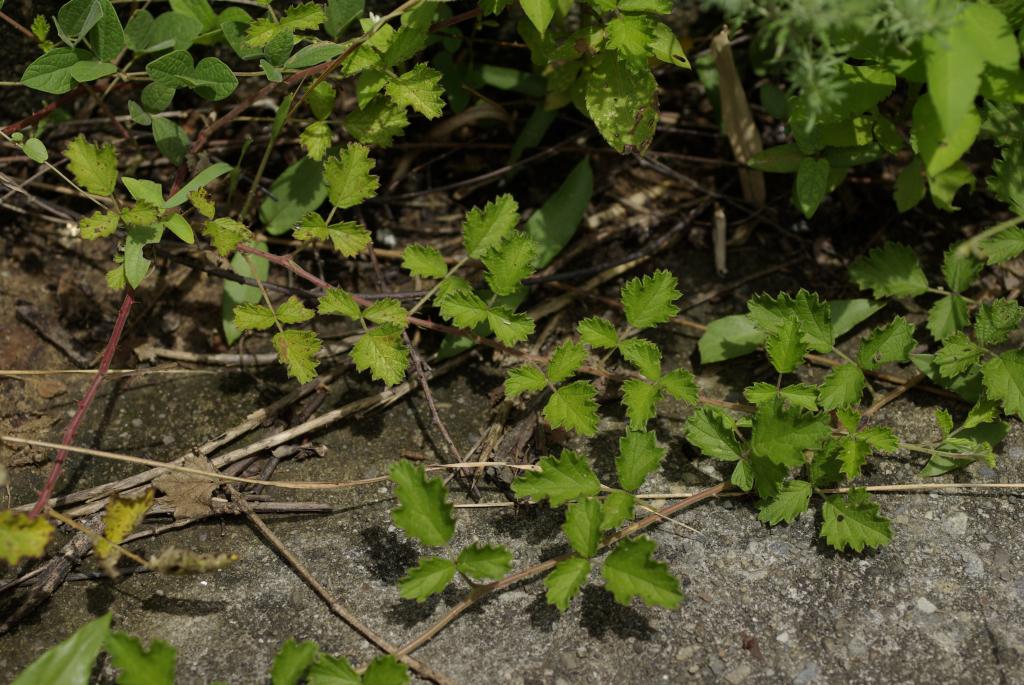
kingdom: Plantae
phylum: Tracheophyta
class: Magnoliopsida
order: Rosales
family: Rosaceae
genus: Rubus
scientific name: Rubus parvifolius
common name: Threeleaf blackberry
